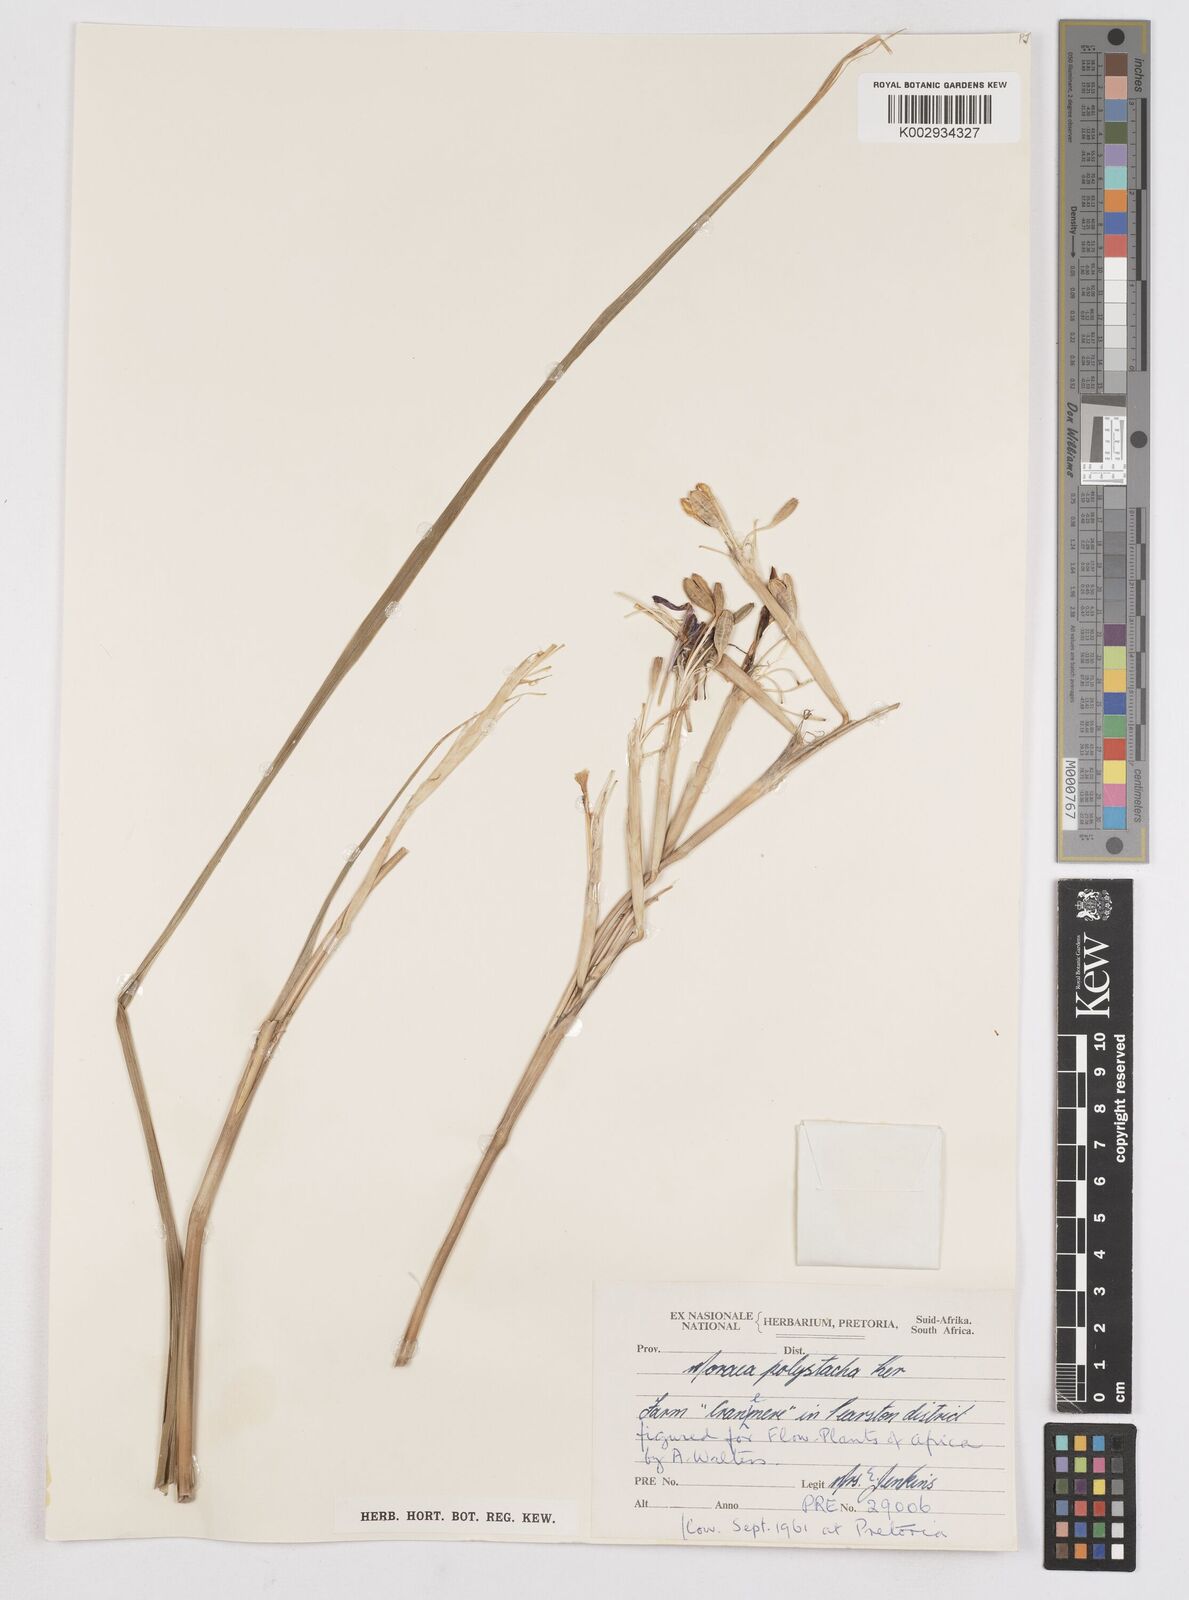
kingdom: Plantae
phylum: Tracheophyta
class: Liliopsida
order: Asparagales
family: Iridaceae
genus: Moraea
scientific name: Moraea polystachya
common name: Blue-tulip
